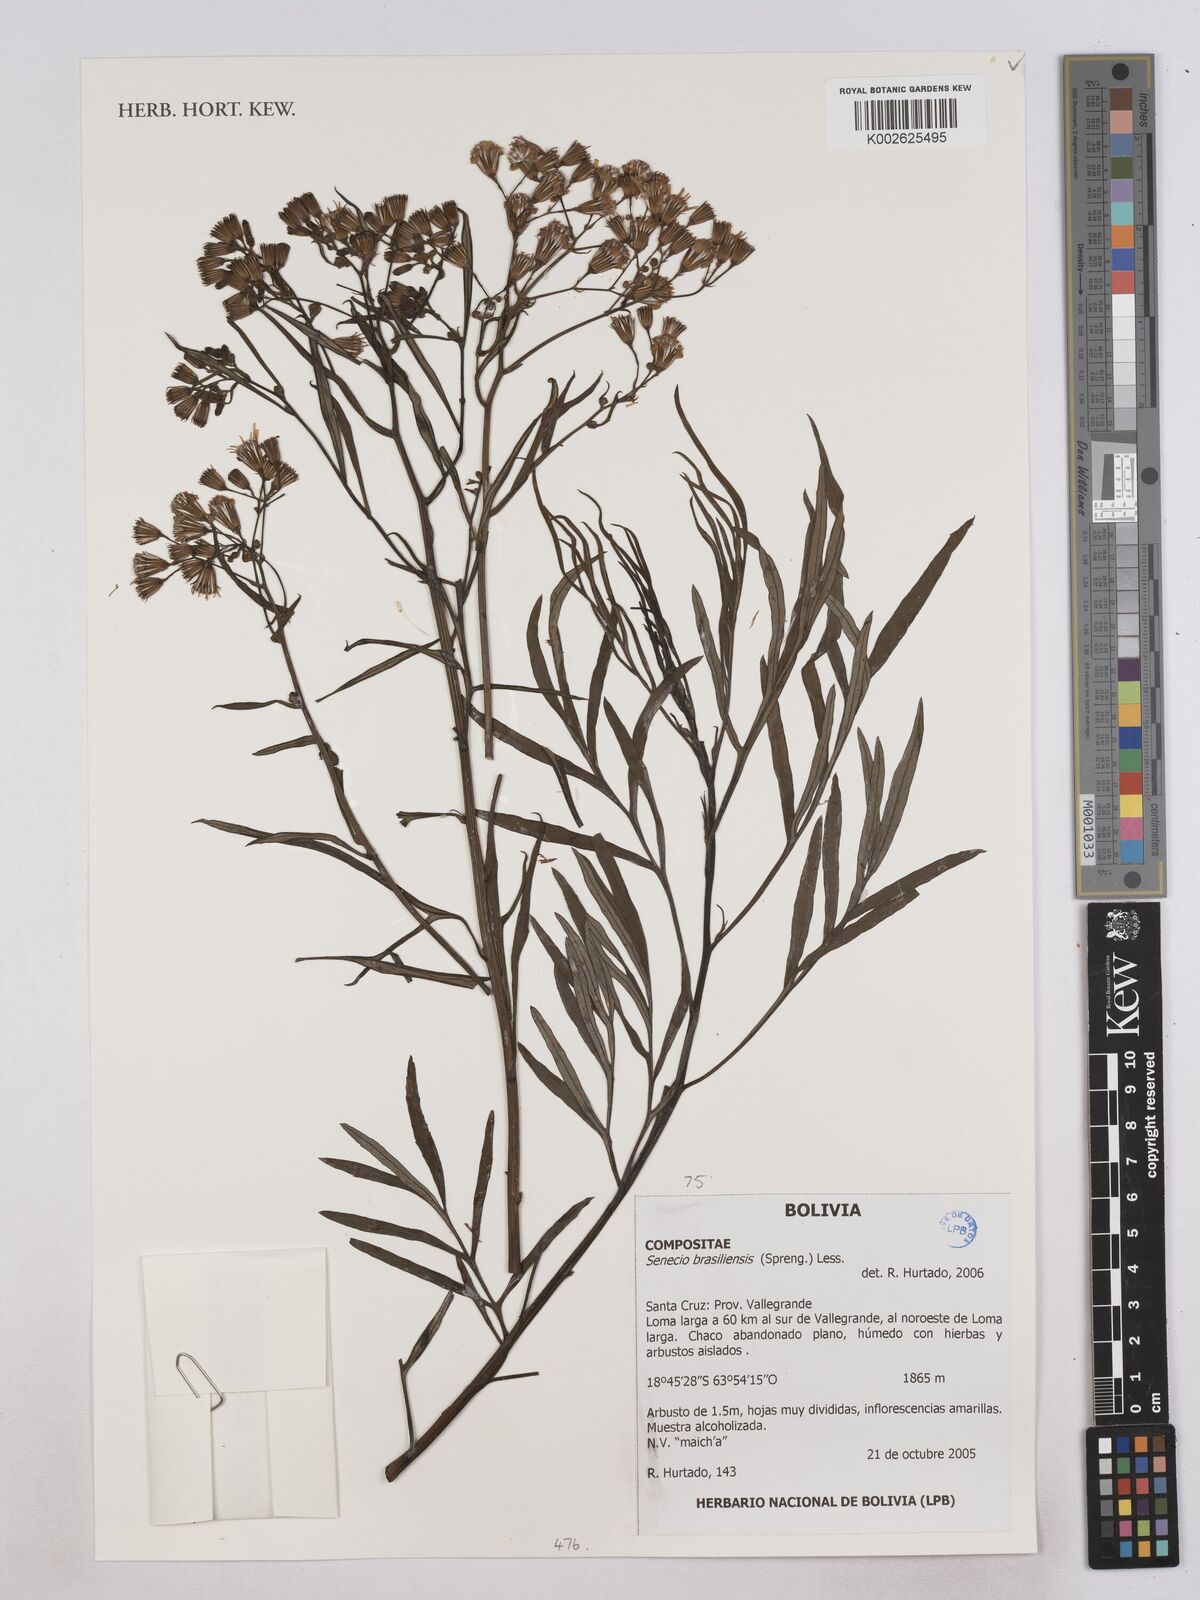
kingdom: Plantae
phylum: Tracheophyta
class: Magnoliopsida
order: Asterales
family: Asteraceae
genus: Senecio
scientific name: Senecio brasiliensis
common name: Hemp-leaf ragwort
